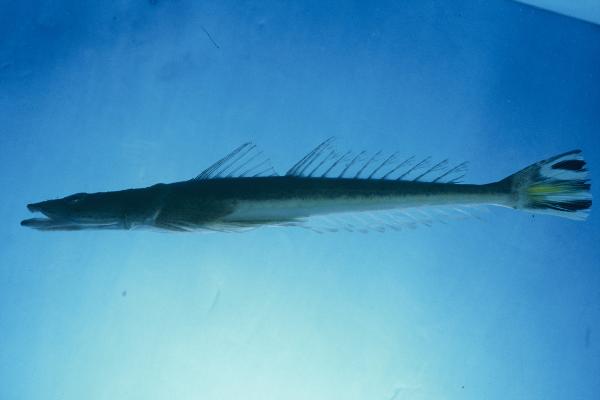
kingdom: Animalia
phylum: Chordata
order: Scorpaeniformes
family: Platycephalidae
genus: Platycephalus
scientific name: Platycephalus indicus
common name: Bartail flathead
